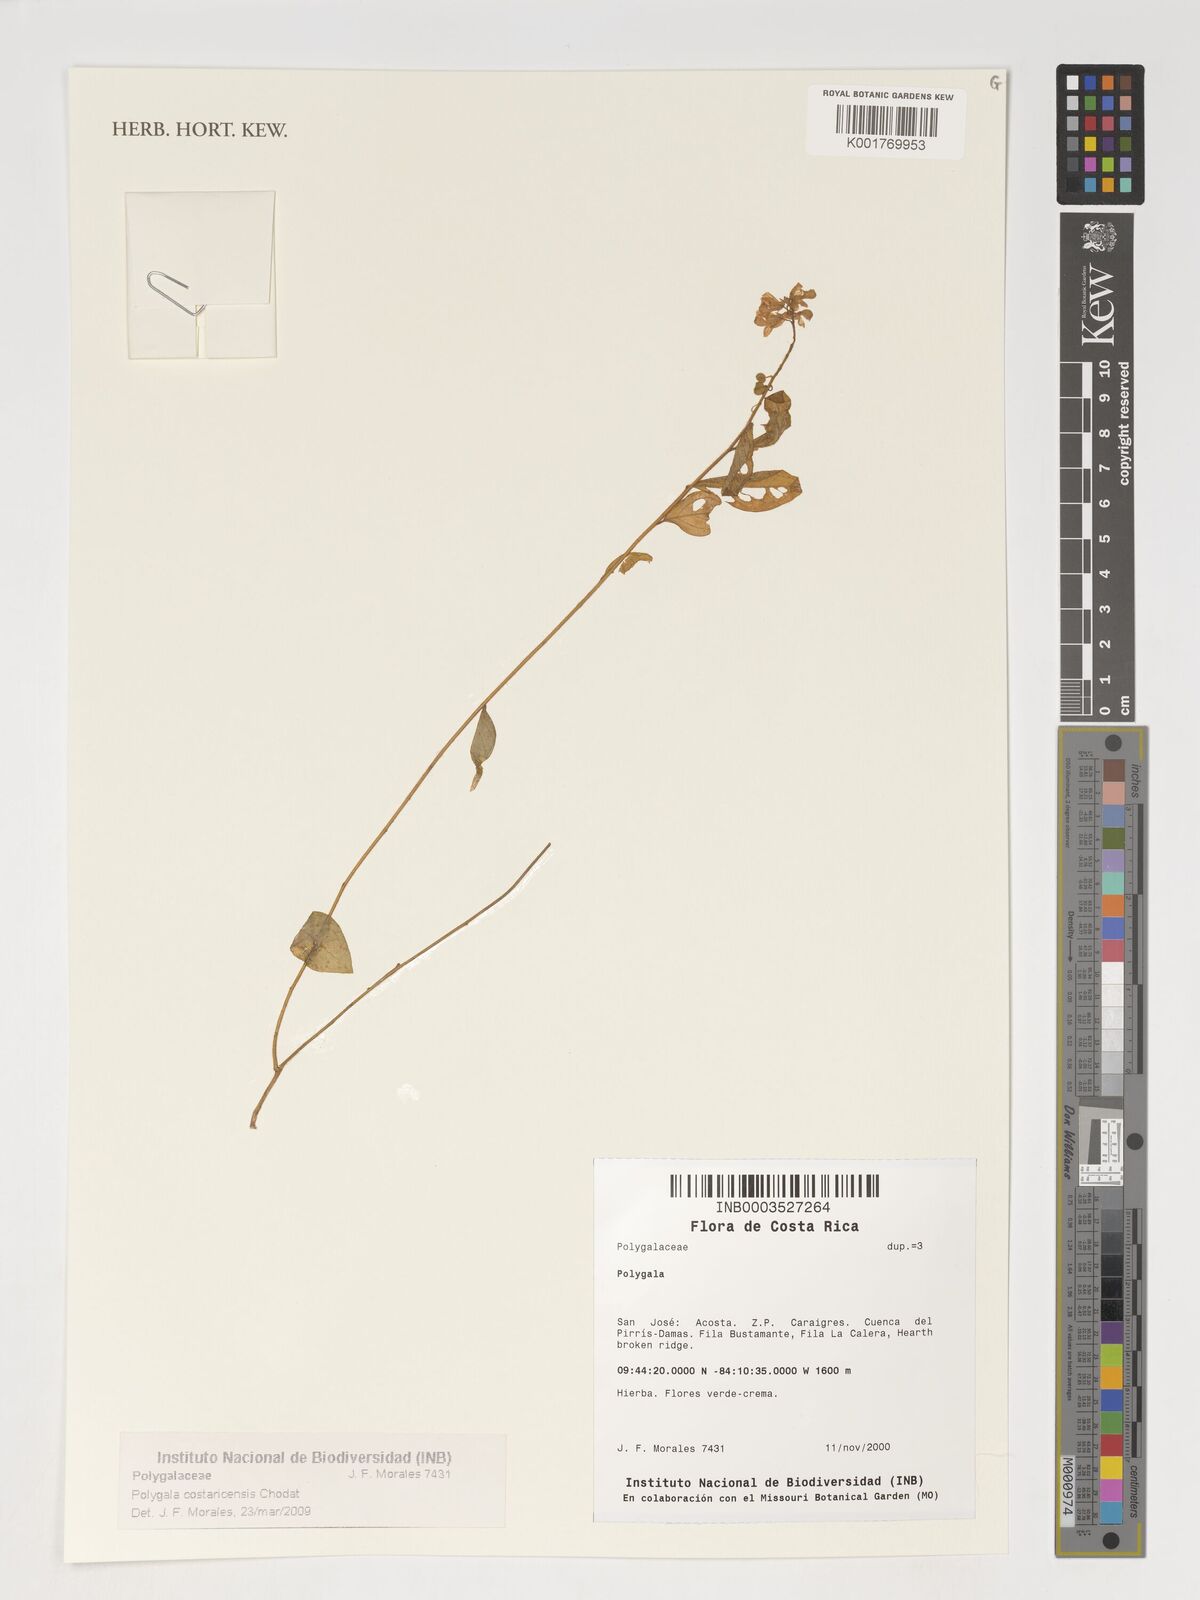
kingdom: Plantae
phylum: Tracheophyta
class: Magnoliopsida
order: Fabales
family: Polygalaceae
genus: Hebecarpa
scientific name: Hebecarpa costaricensis
